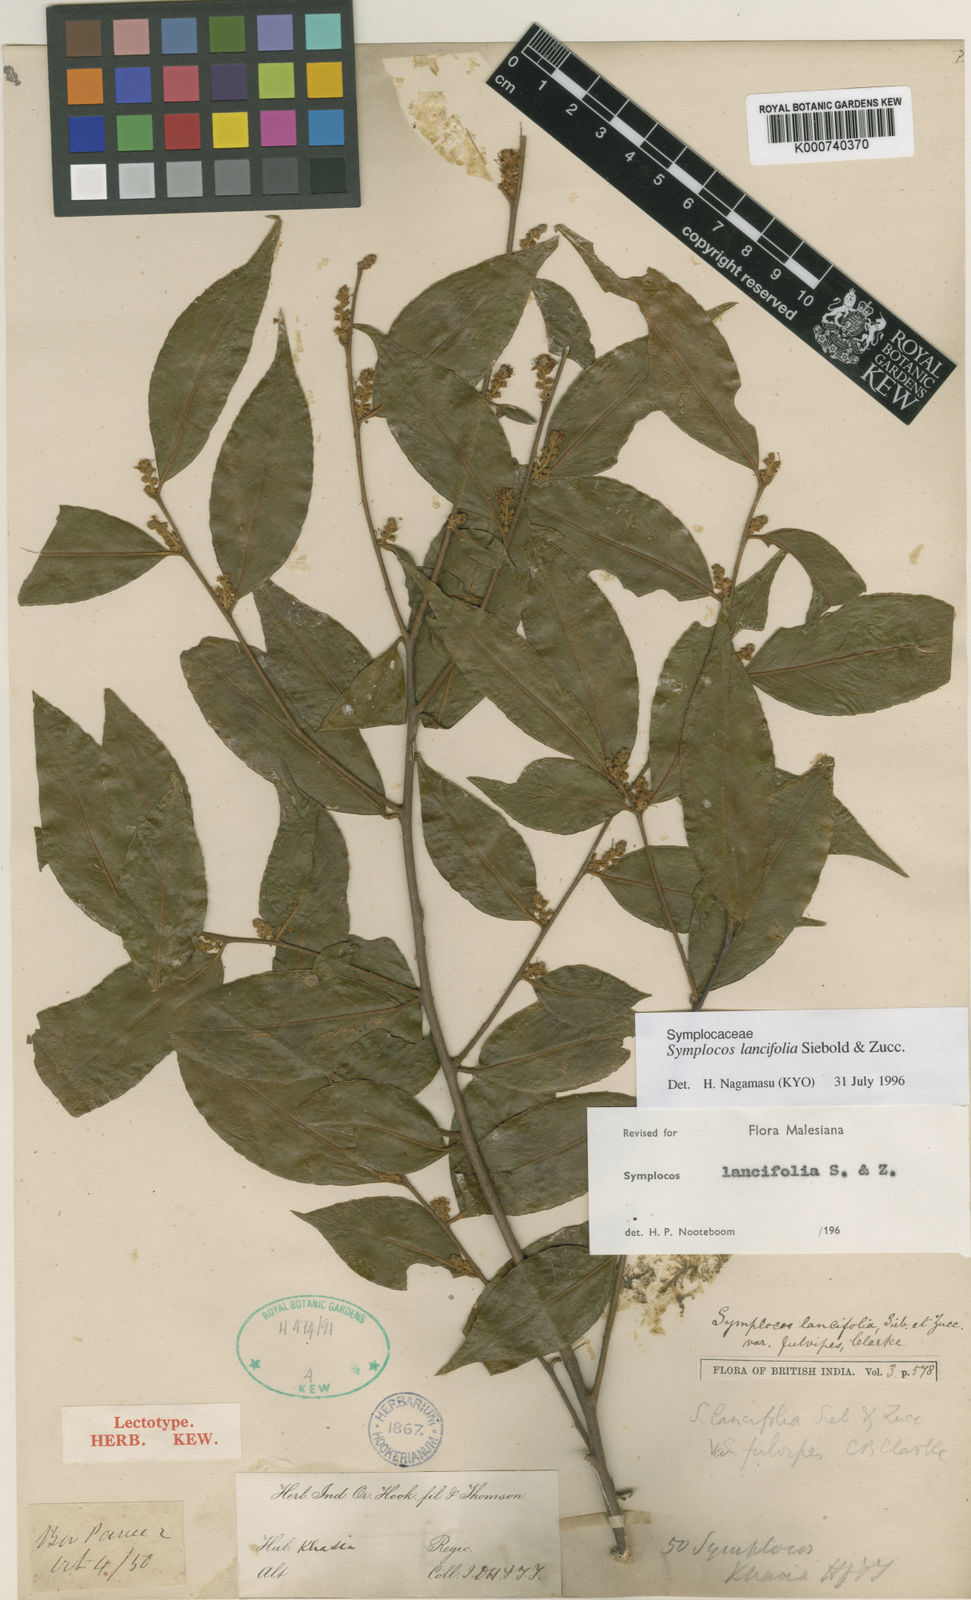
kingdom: Plantae
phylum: Tracheophyta
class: Magnoliopsida
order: Ericales
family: Symplocaceae
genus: Symplocos
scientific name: Symplocos lancifolia
